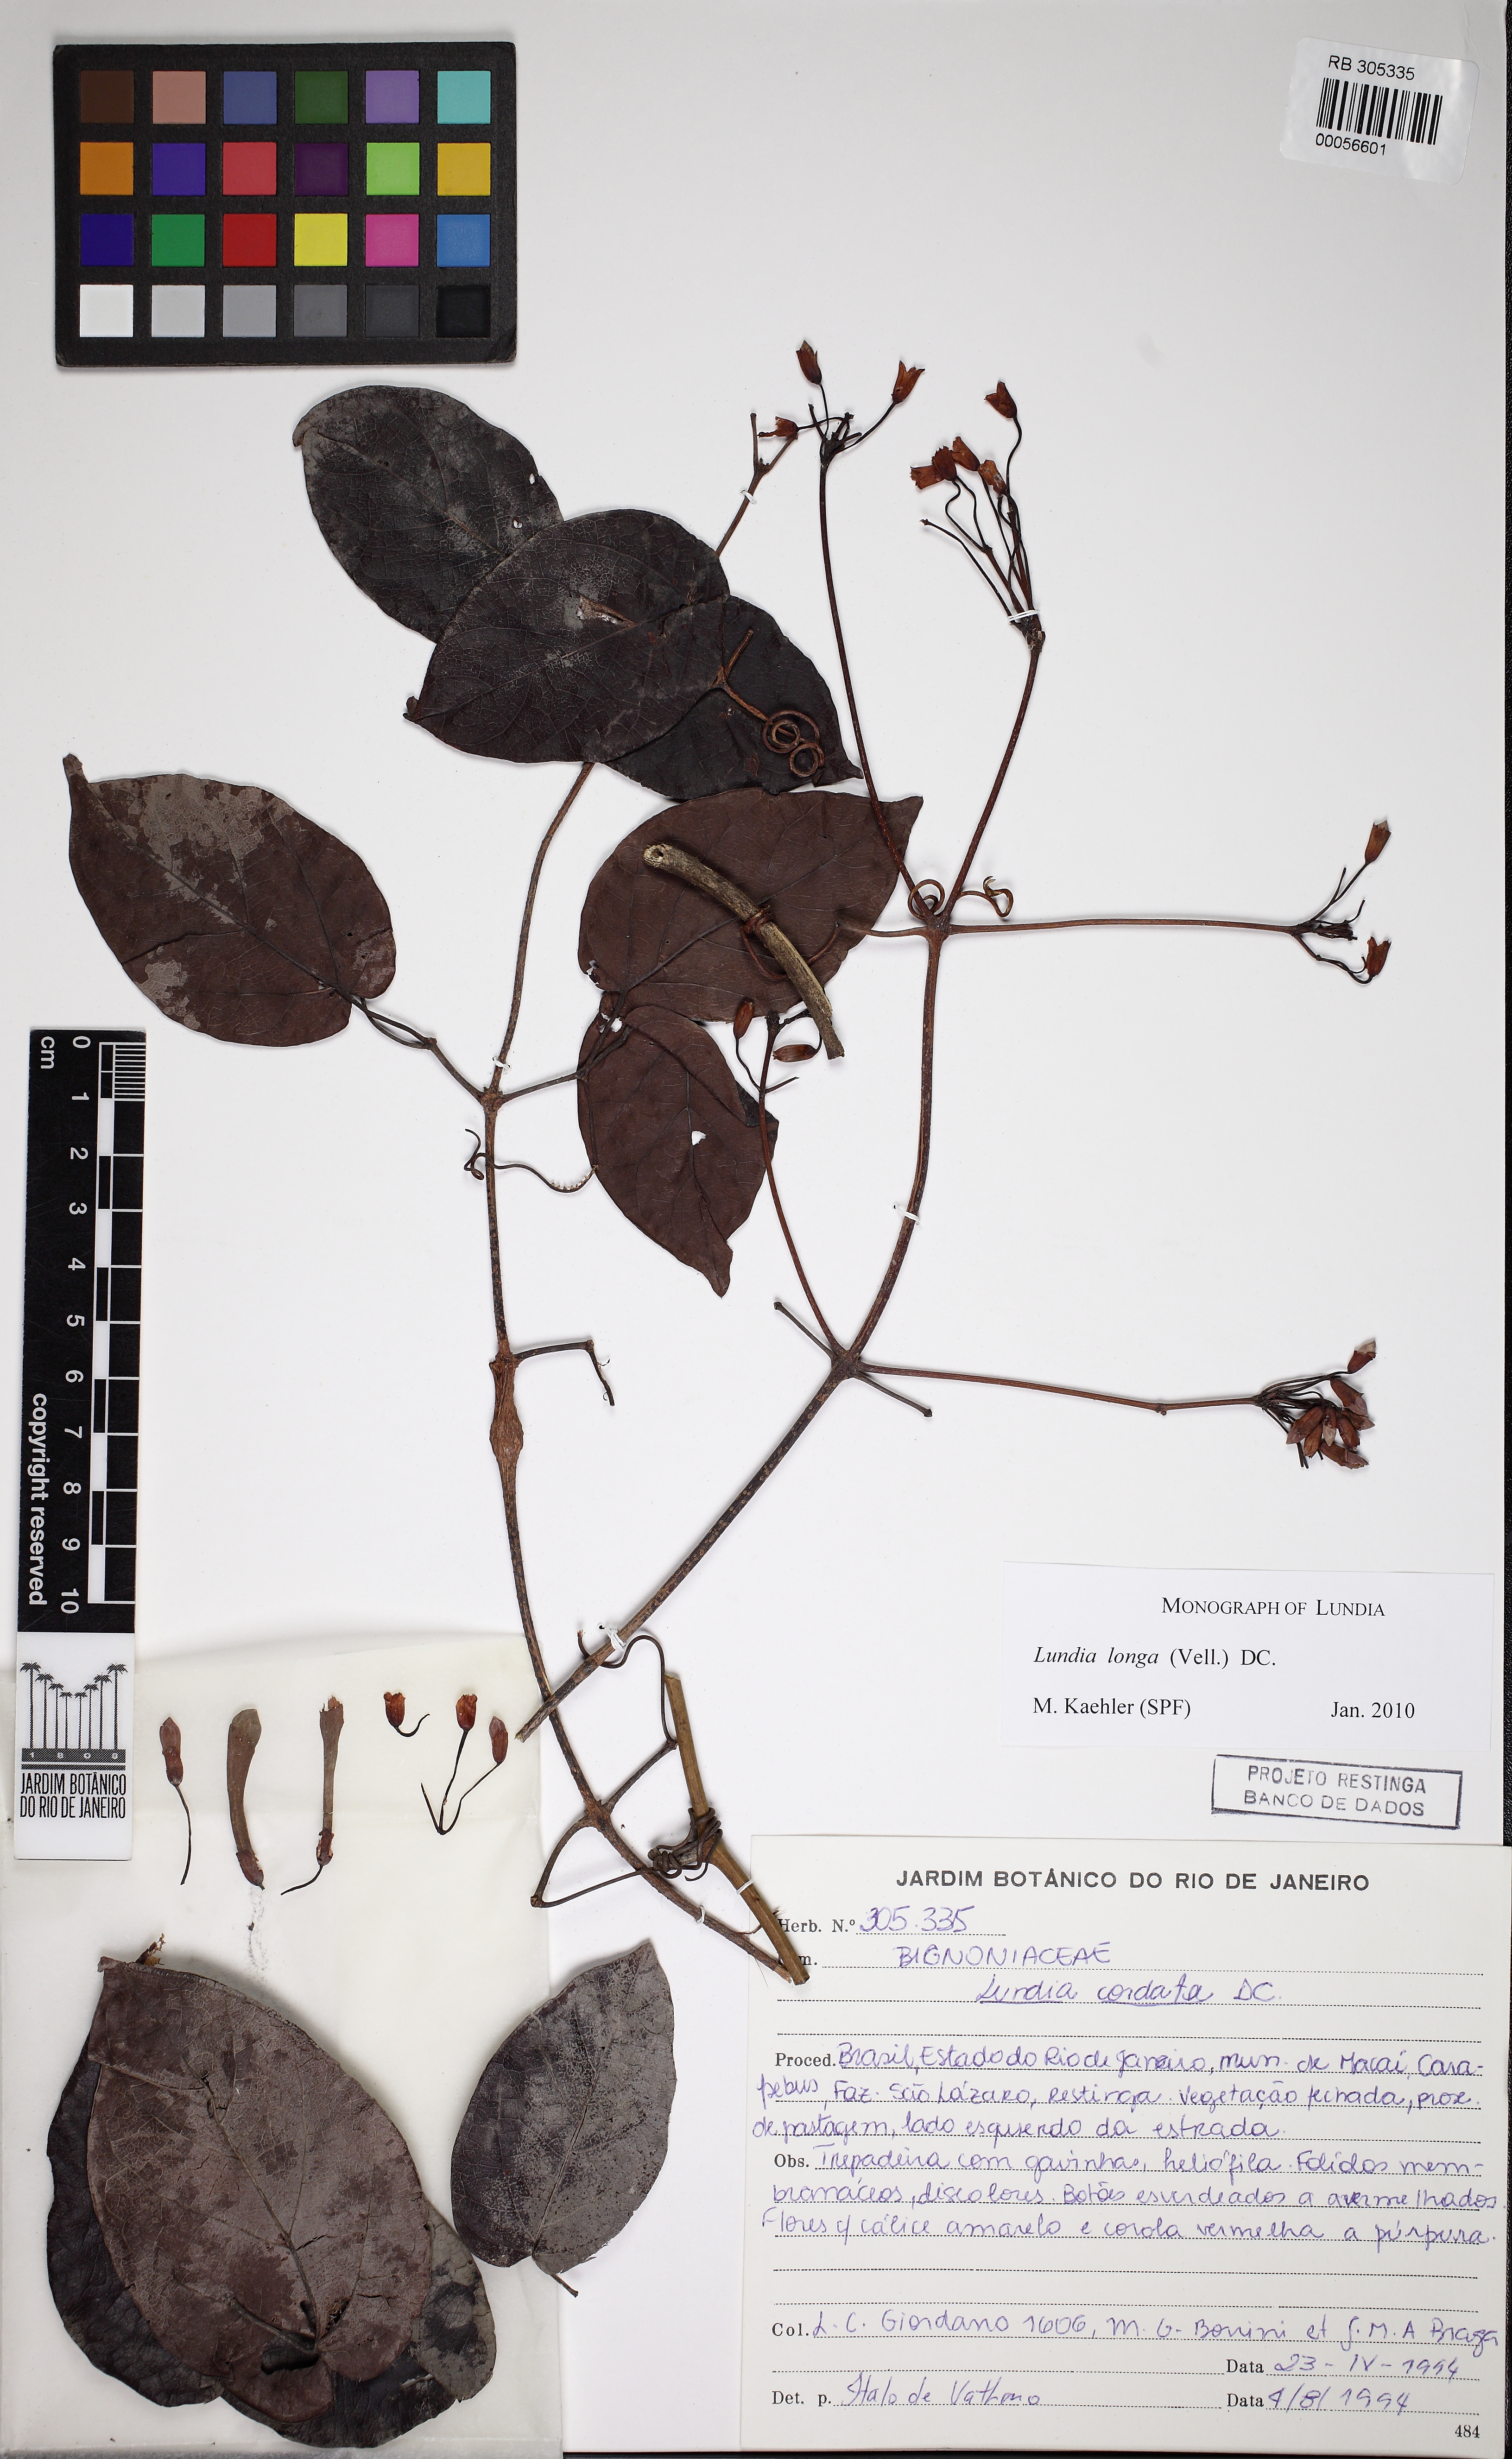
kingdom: Plantae
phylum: Tracheophyta
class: Magnoliopsida
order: Lamiales
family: Bignoniaceae
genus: Lundia
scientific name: Lundia longa
